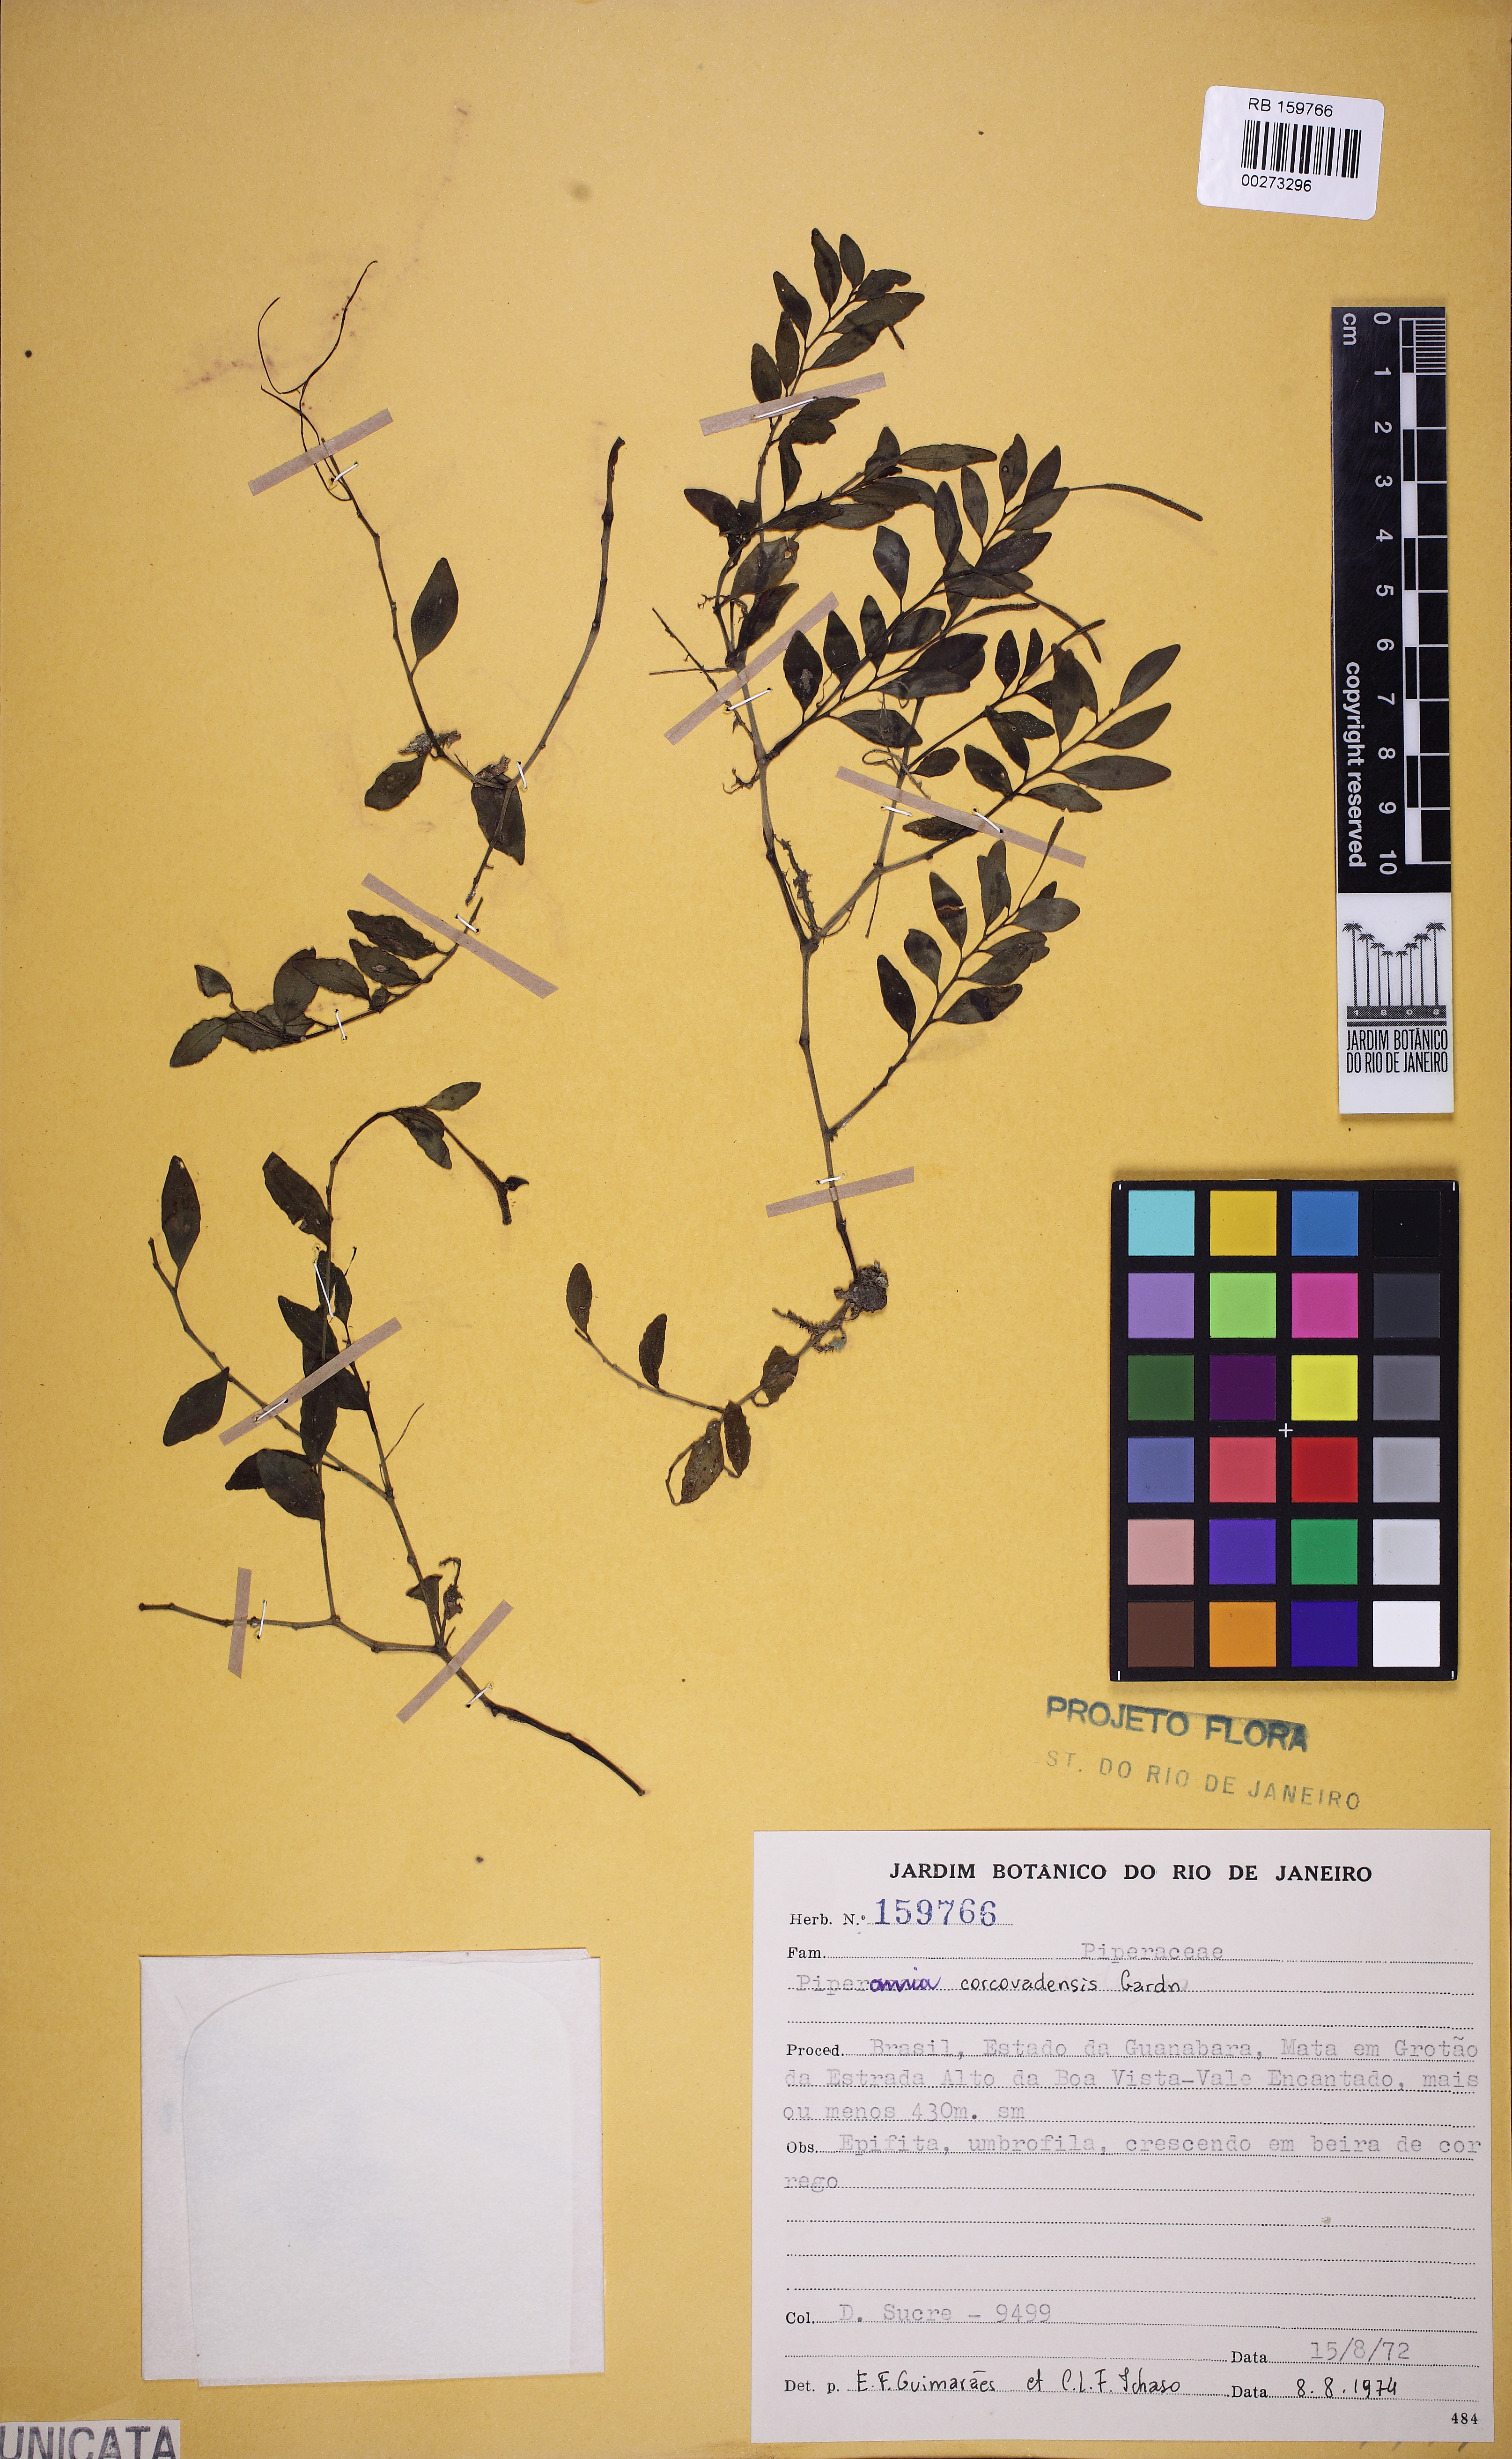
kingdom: Plantae
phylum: Tracheophyta
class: Magnoliopsida
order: Piperales
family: Piperaceae
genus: Peperomia
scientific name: Peperomia corcovadensis
